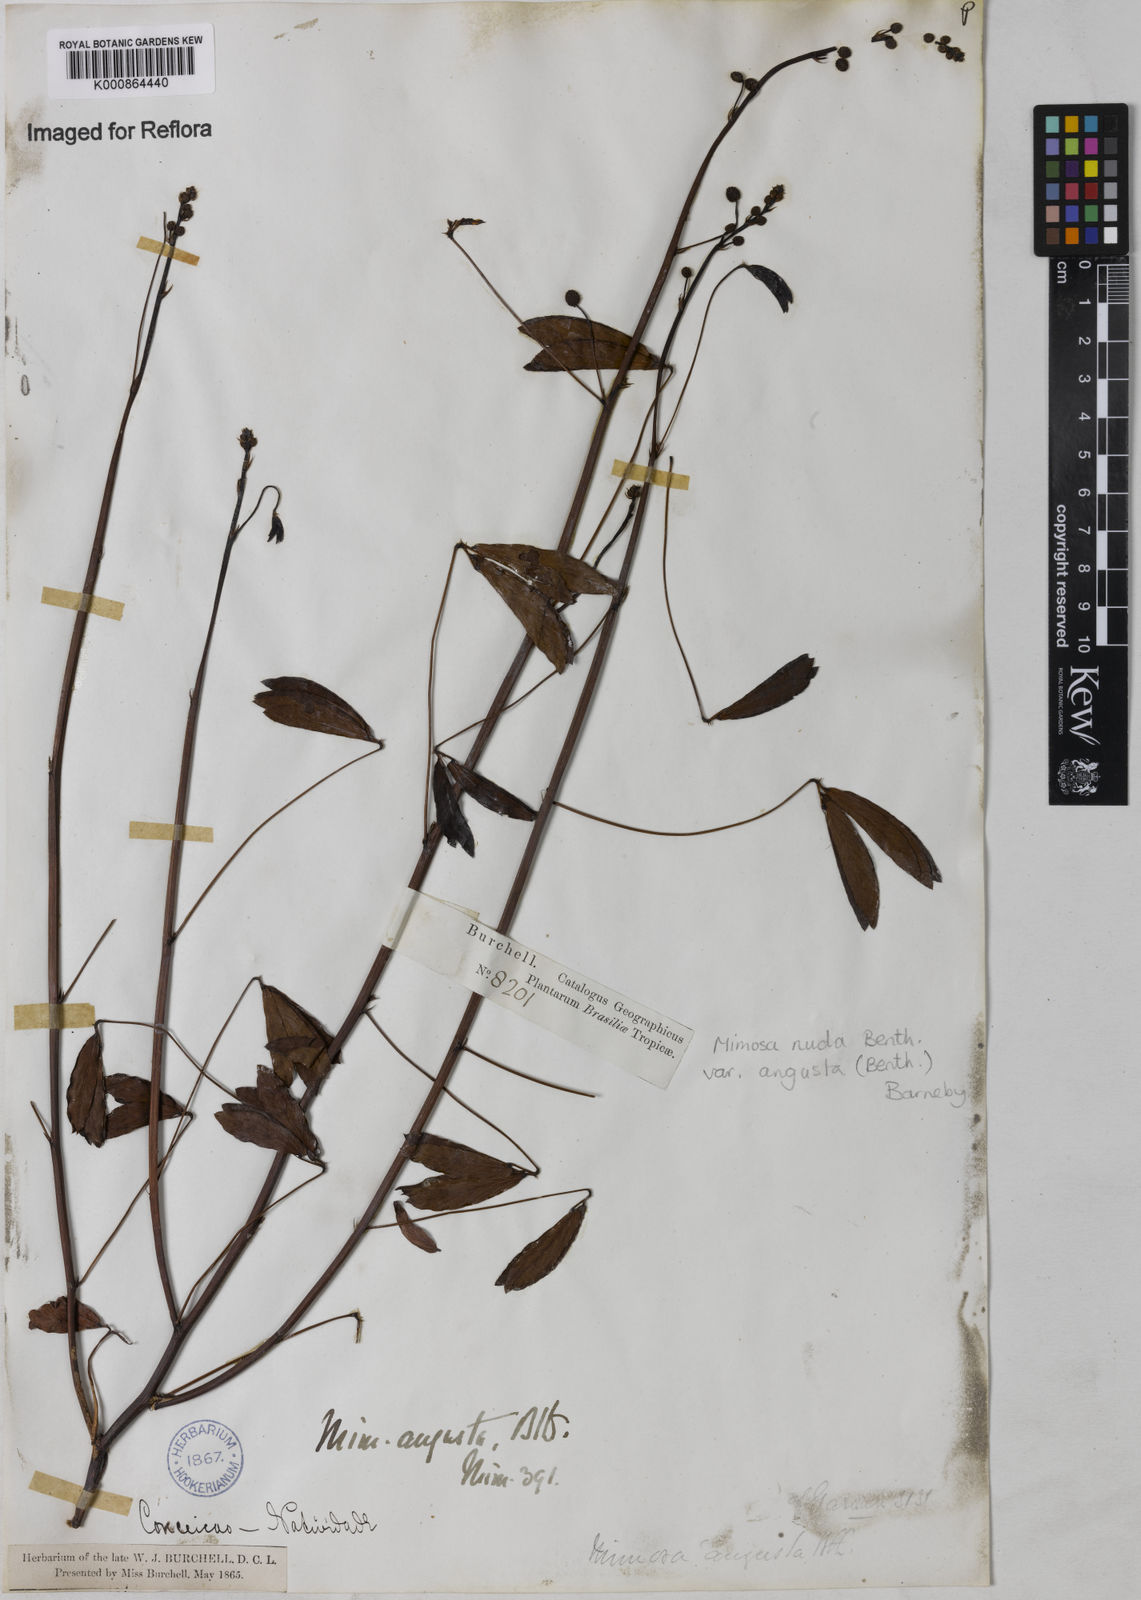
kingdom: Plantae
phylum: Tracheophyta
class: Magnoliopsida
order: Fabales
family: Fabaceae
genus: Mimosa
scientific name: Mimosa debilis
